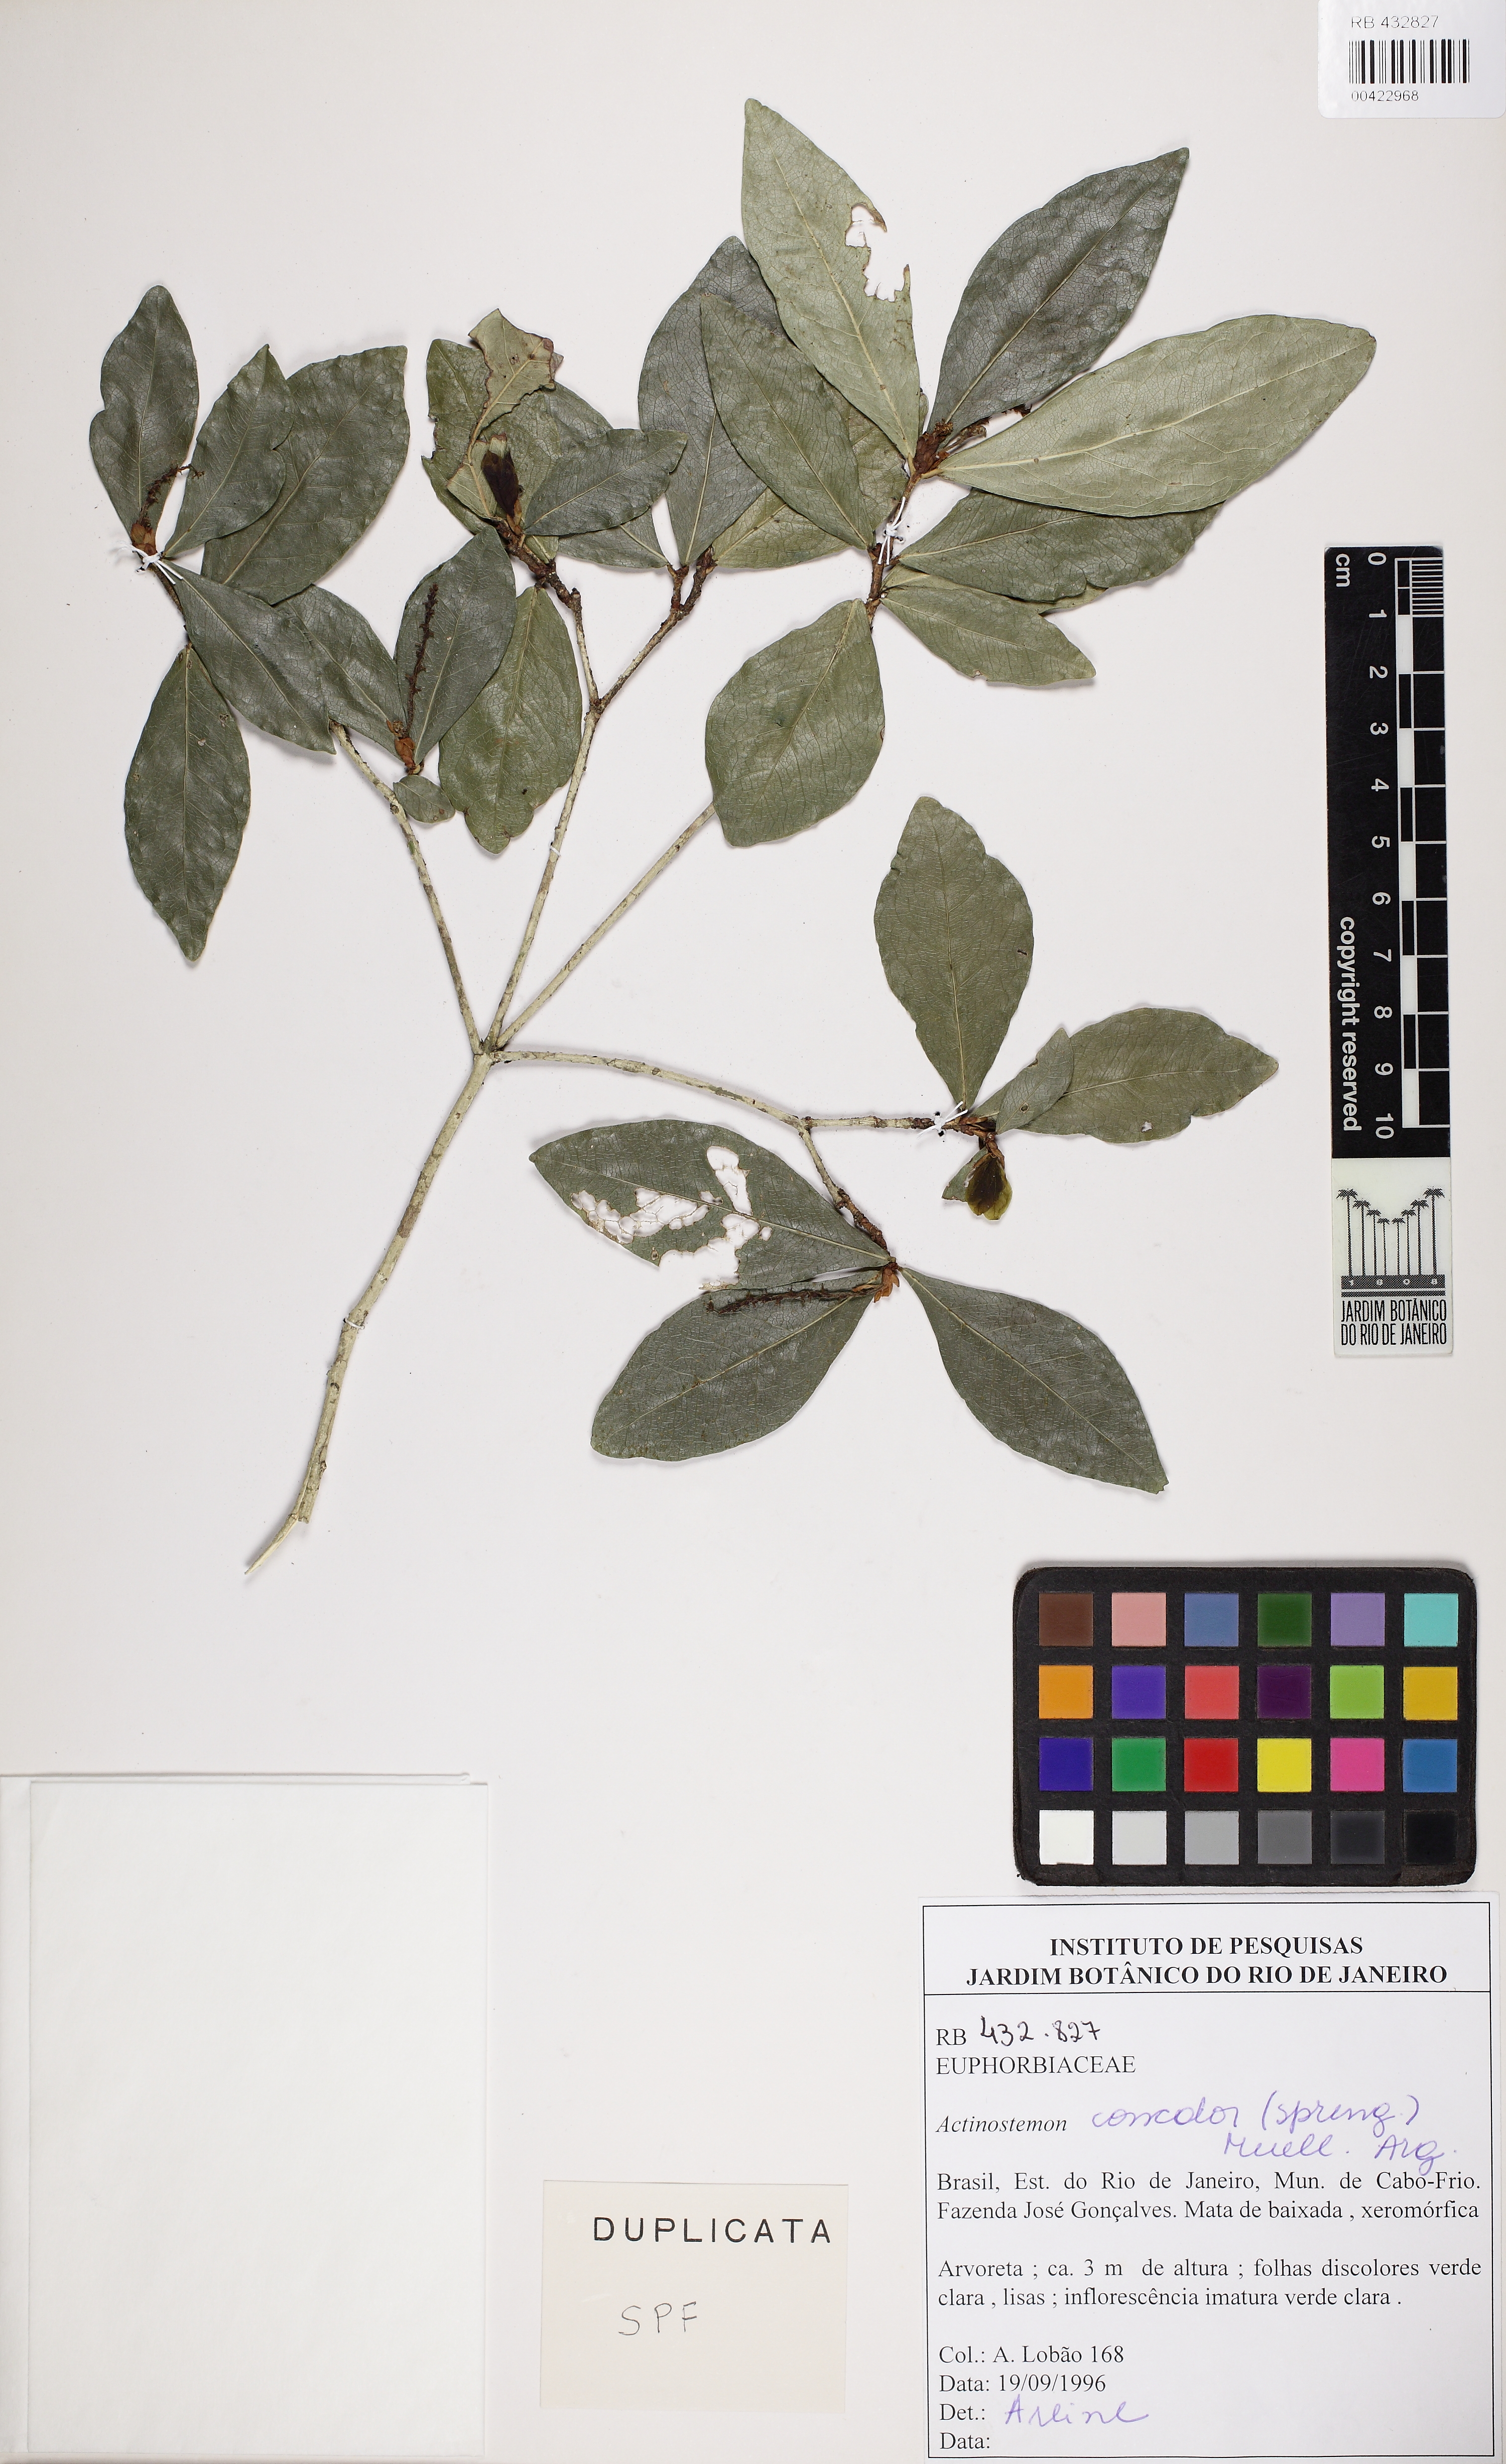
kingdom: Plantae
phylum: Tracheophyta
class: Magnoliopsida
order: Malpighiales
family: Euphorbiaceae
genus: Actinostemon
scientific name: Actinostemon verticillatus
